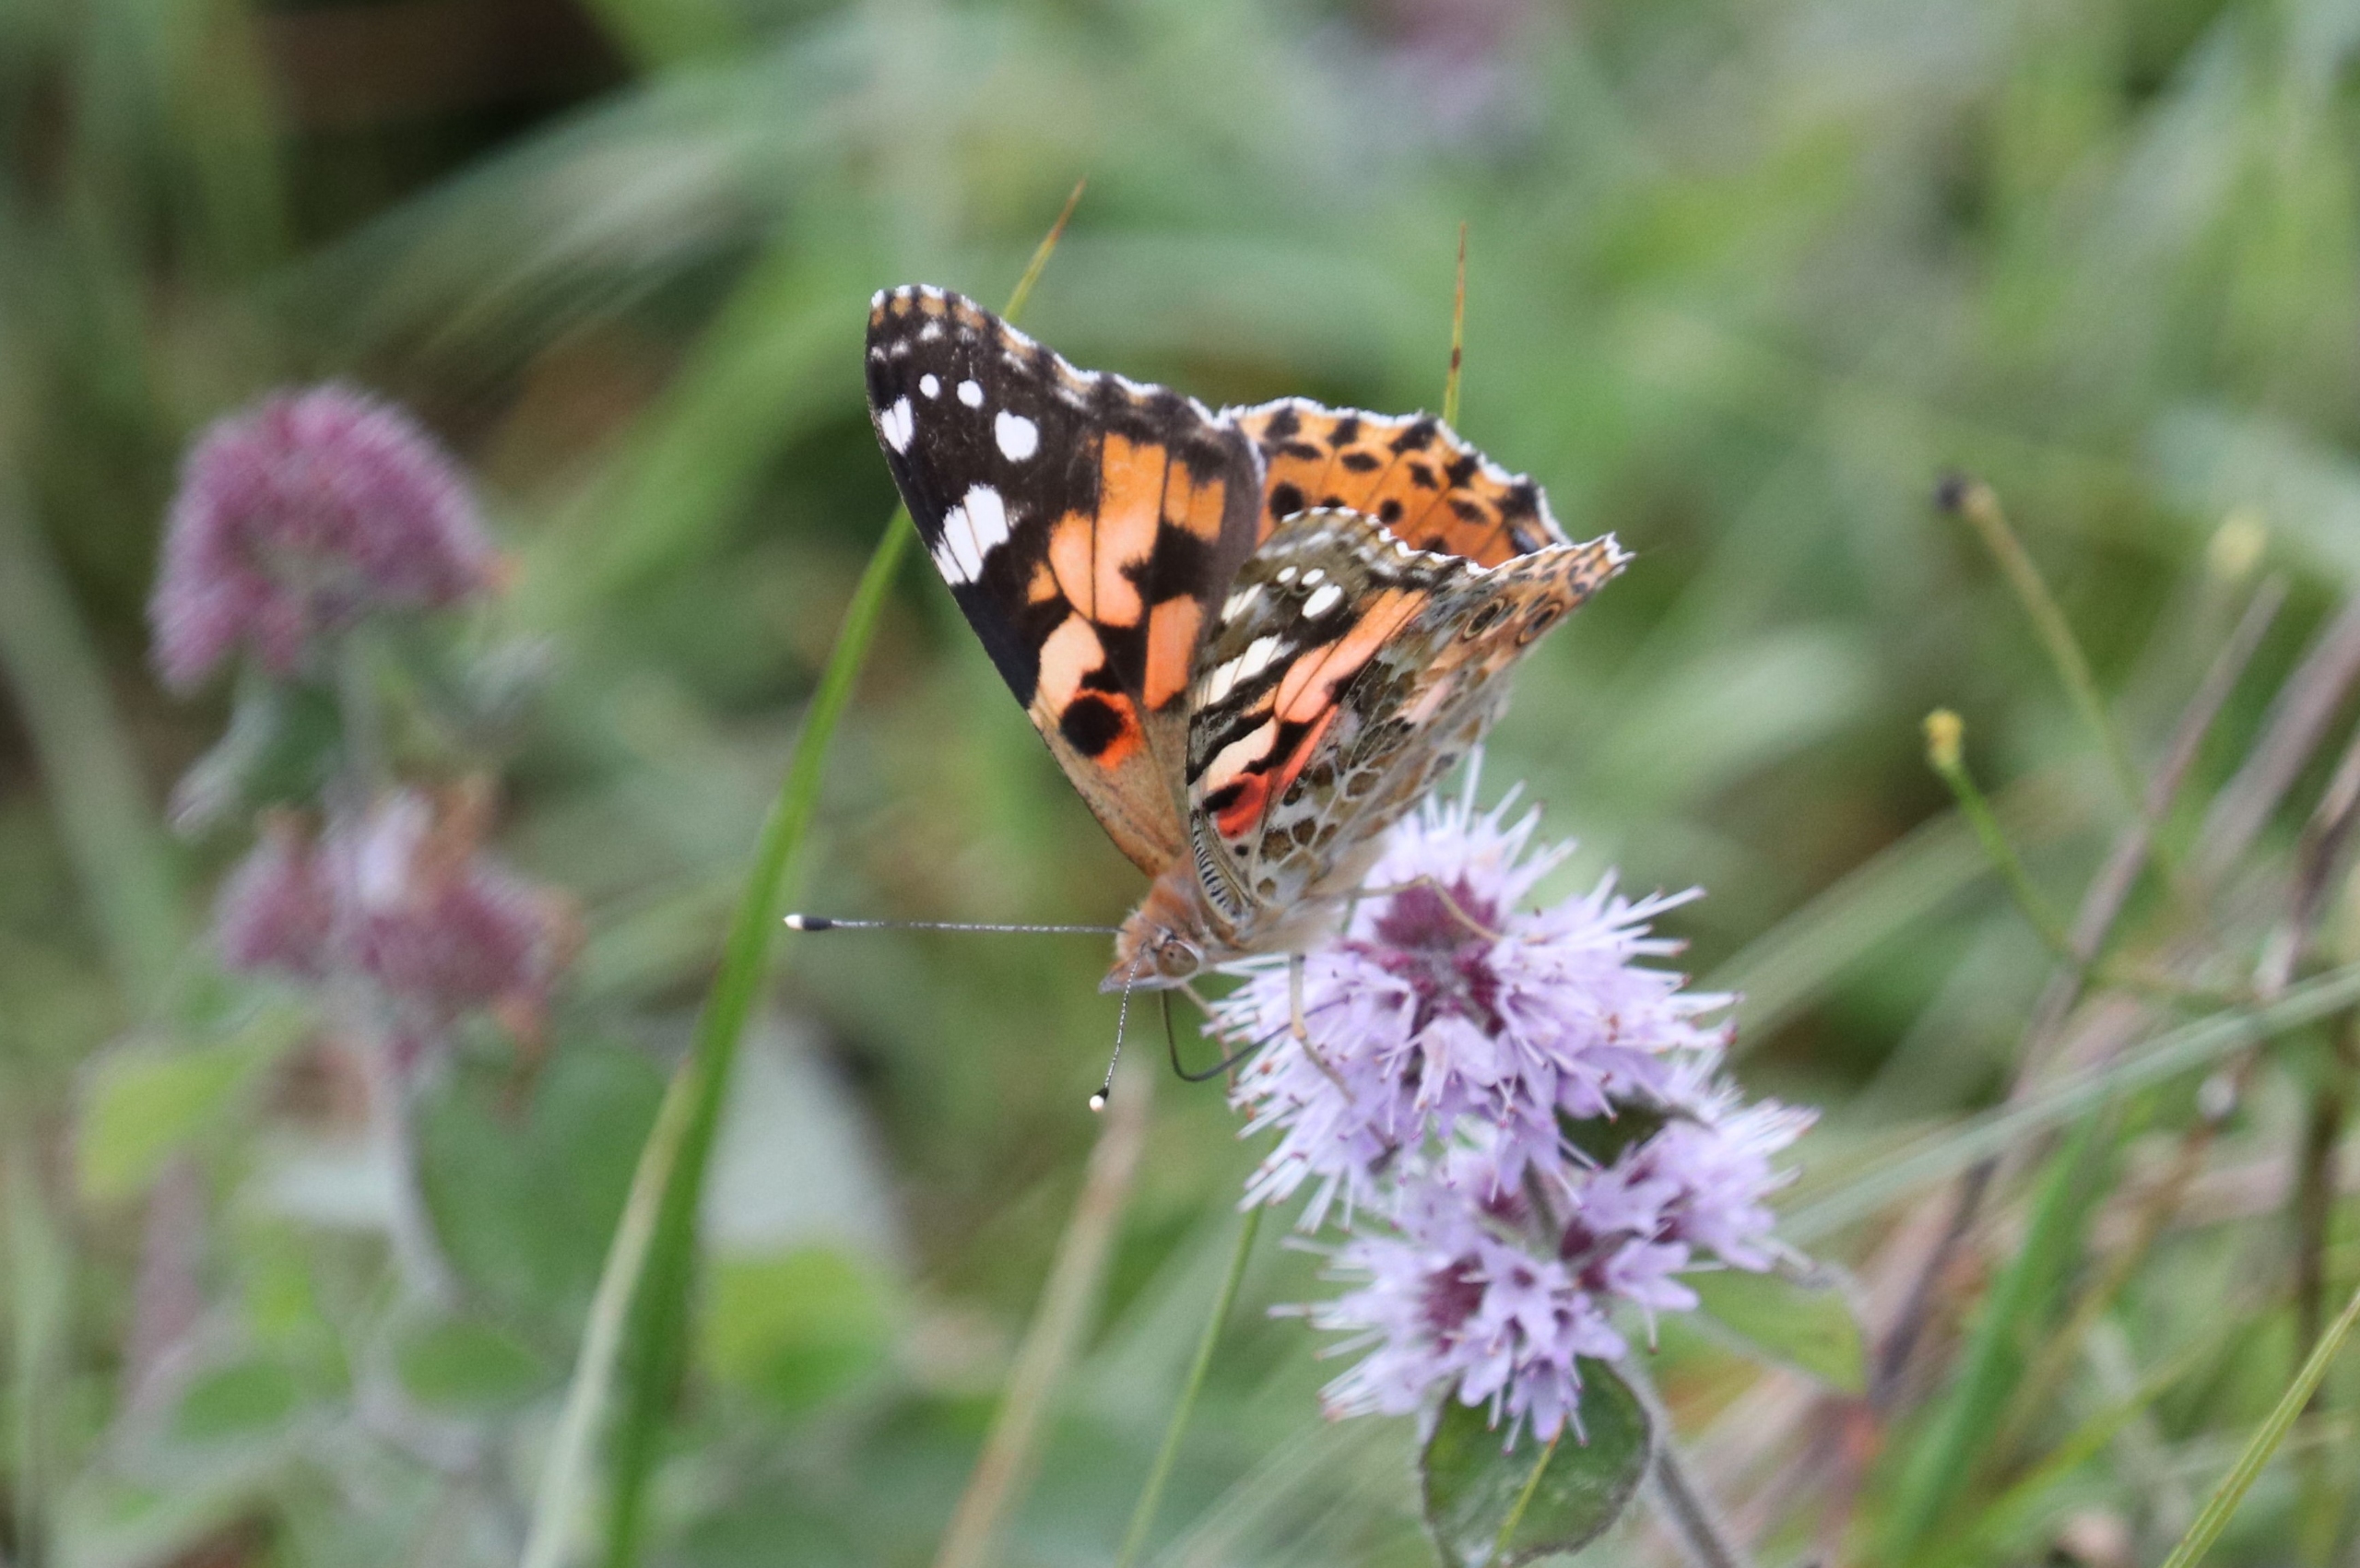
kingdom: Animalia
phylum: Arthropoda
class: Insecta
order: Lepidoptera
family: Nymphalidae
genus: Vanessa
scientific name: Vanessa cardui
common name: Tidselsommerfugl
